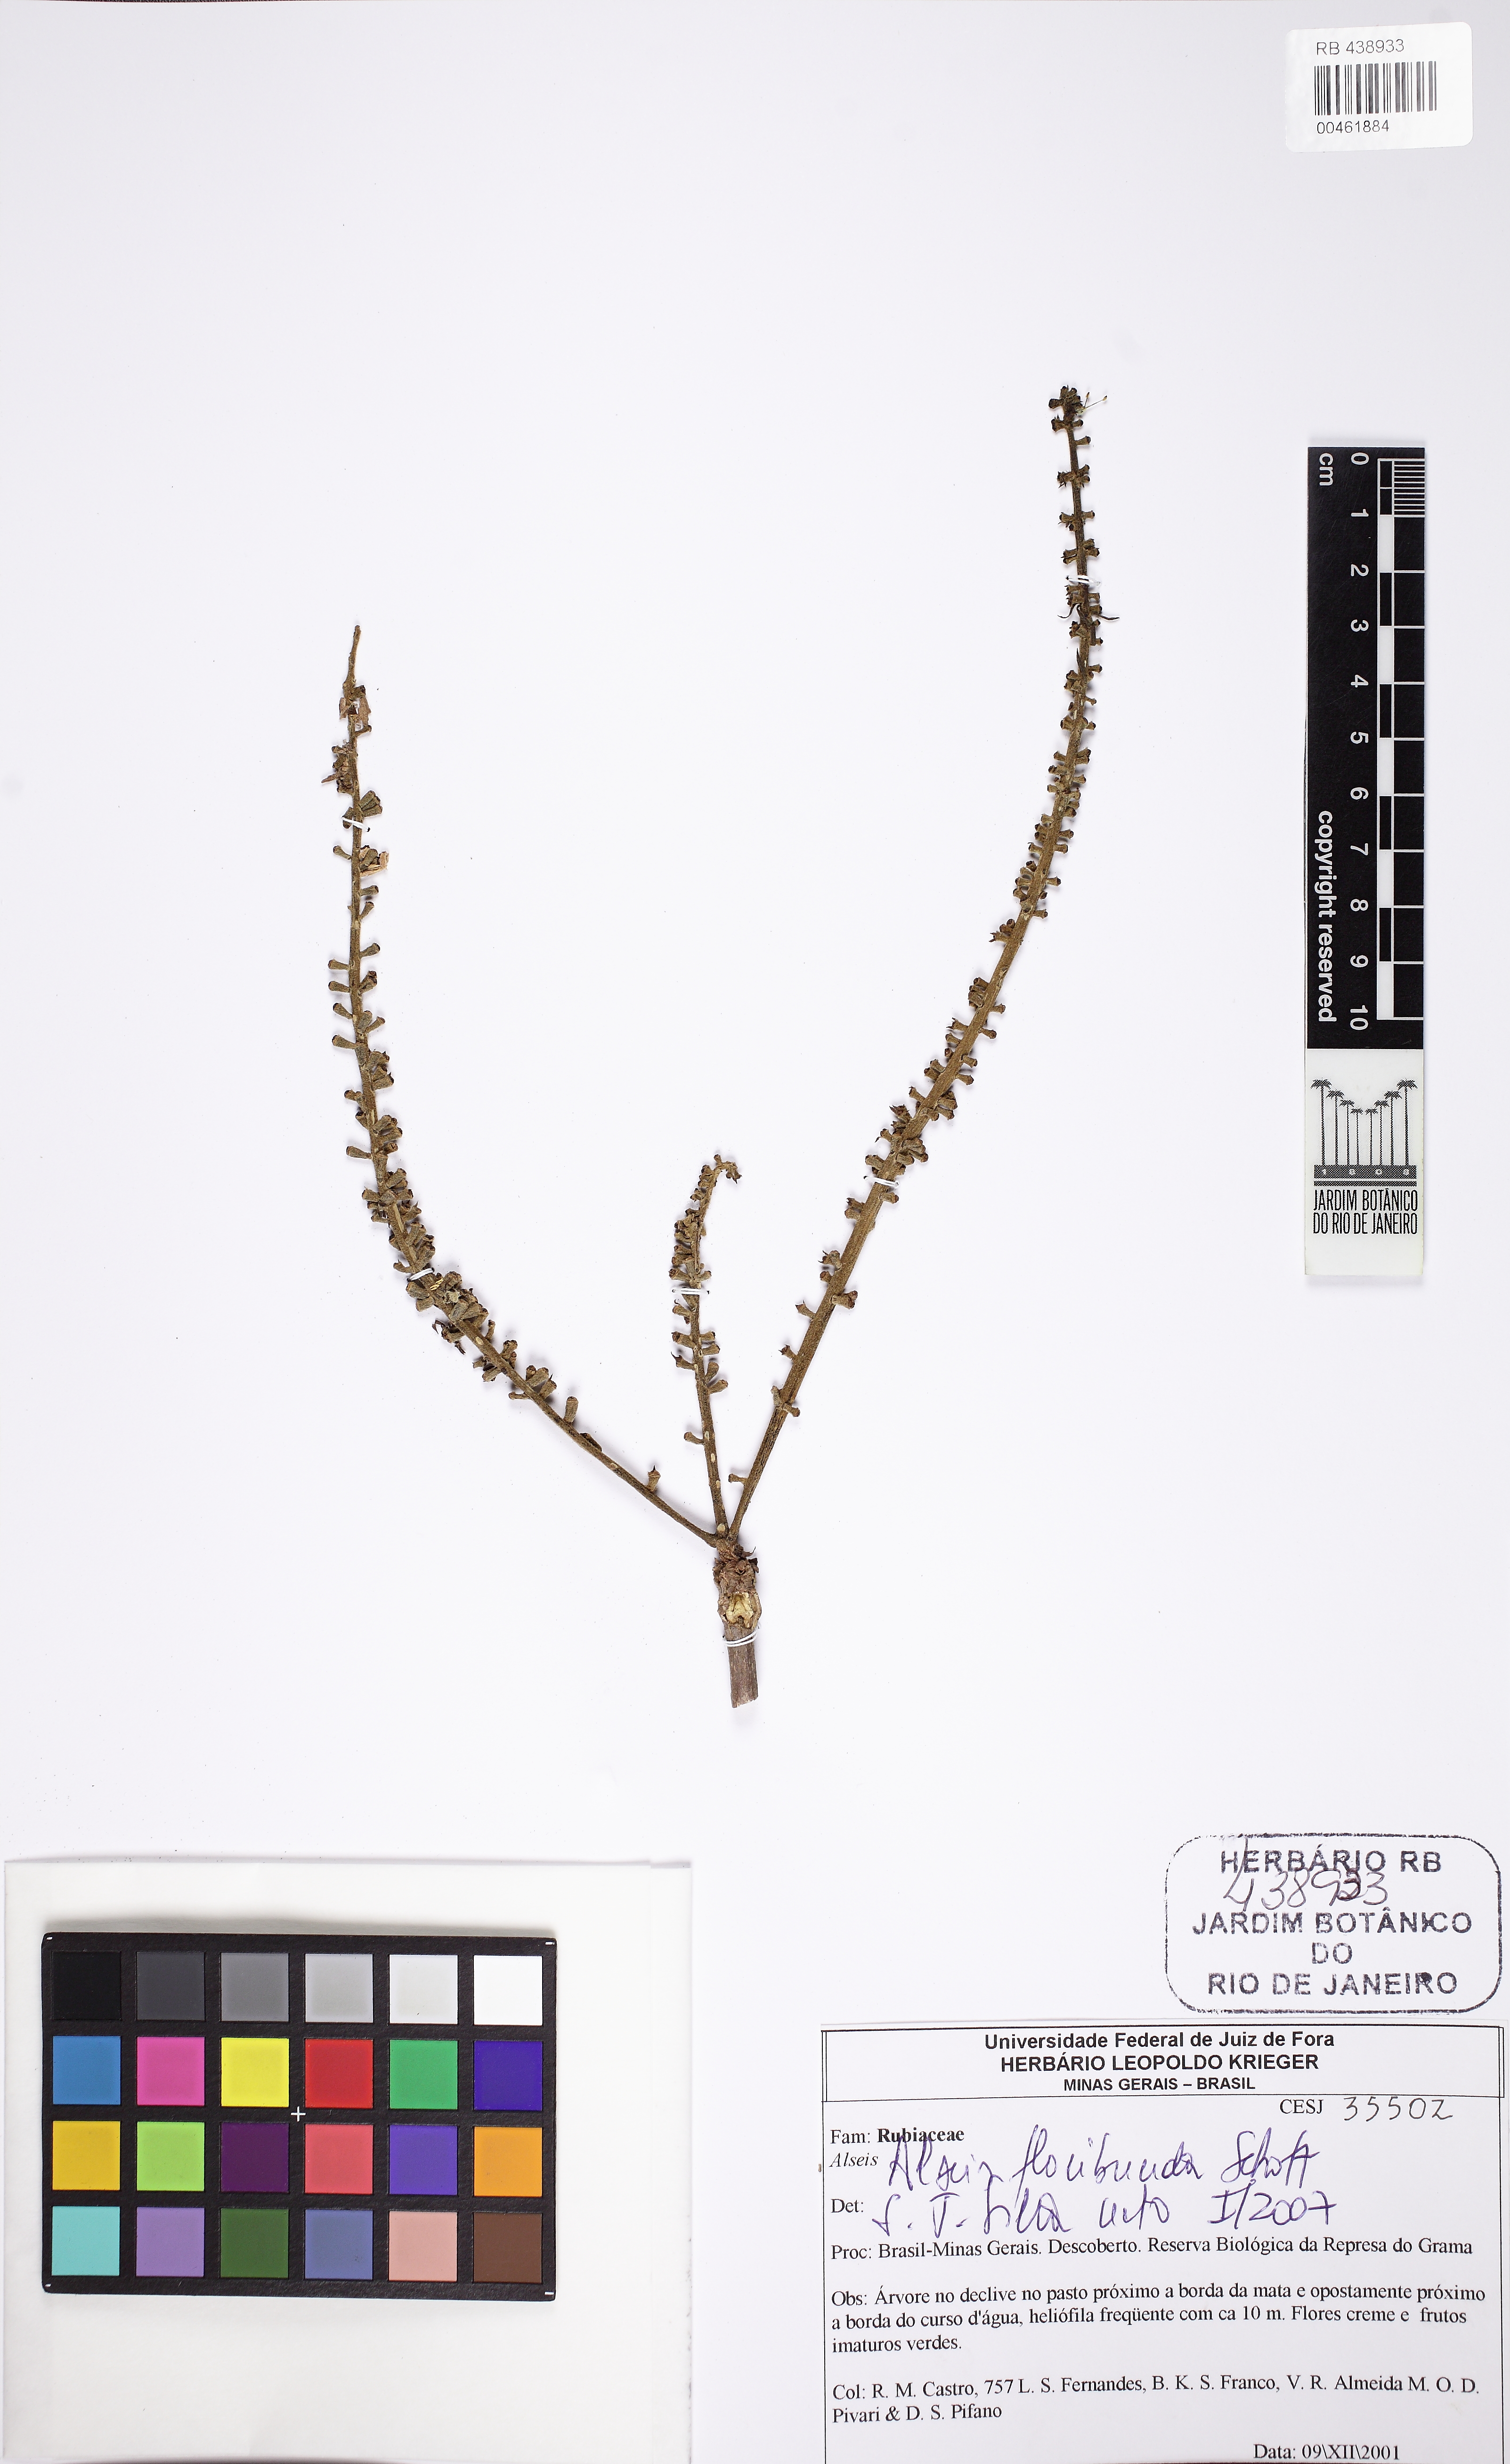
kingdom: Plantae
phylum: Tracheophyta
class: Magnoliopsida
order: Gentianales
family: Rubiaceae
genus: Alseis
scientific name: Alseis floribunda
